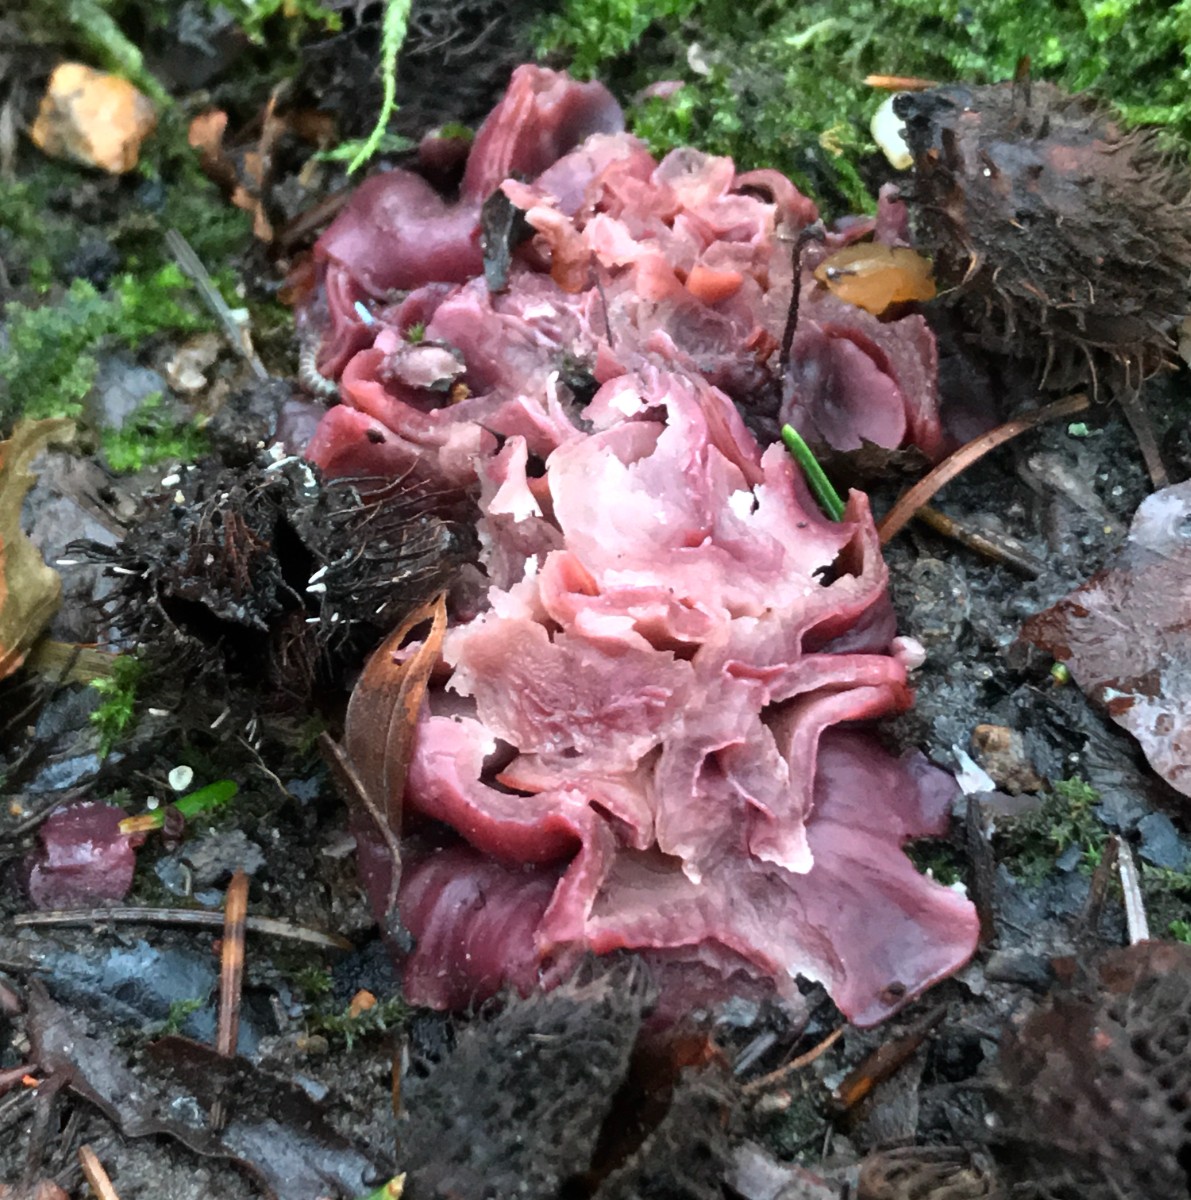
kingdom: Fungi
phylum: Ascomycota
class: Leotiomycetes
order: Helotiales
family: Gelatinodiscaceae
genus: Ascocoryne
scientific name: Ascocoryne cylichnium
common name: stor sejskive
